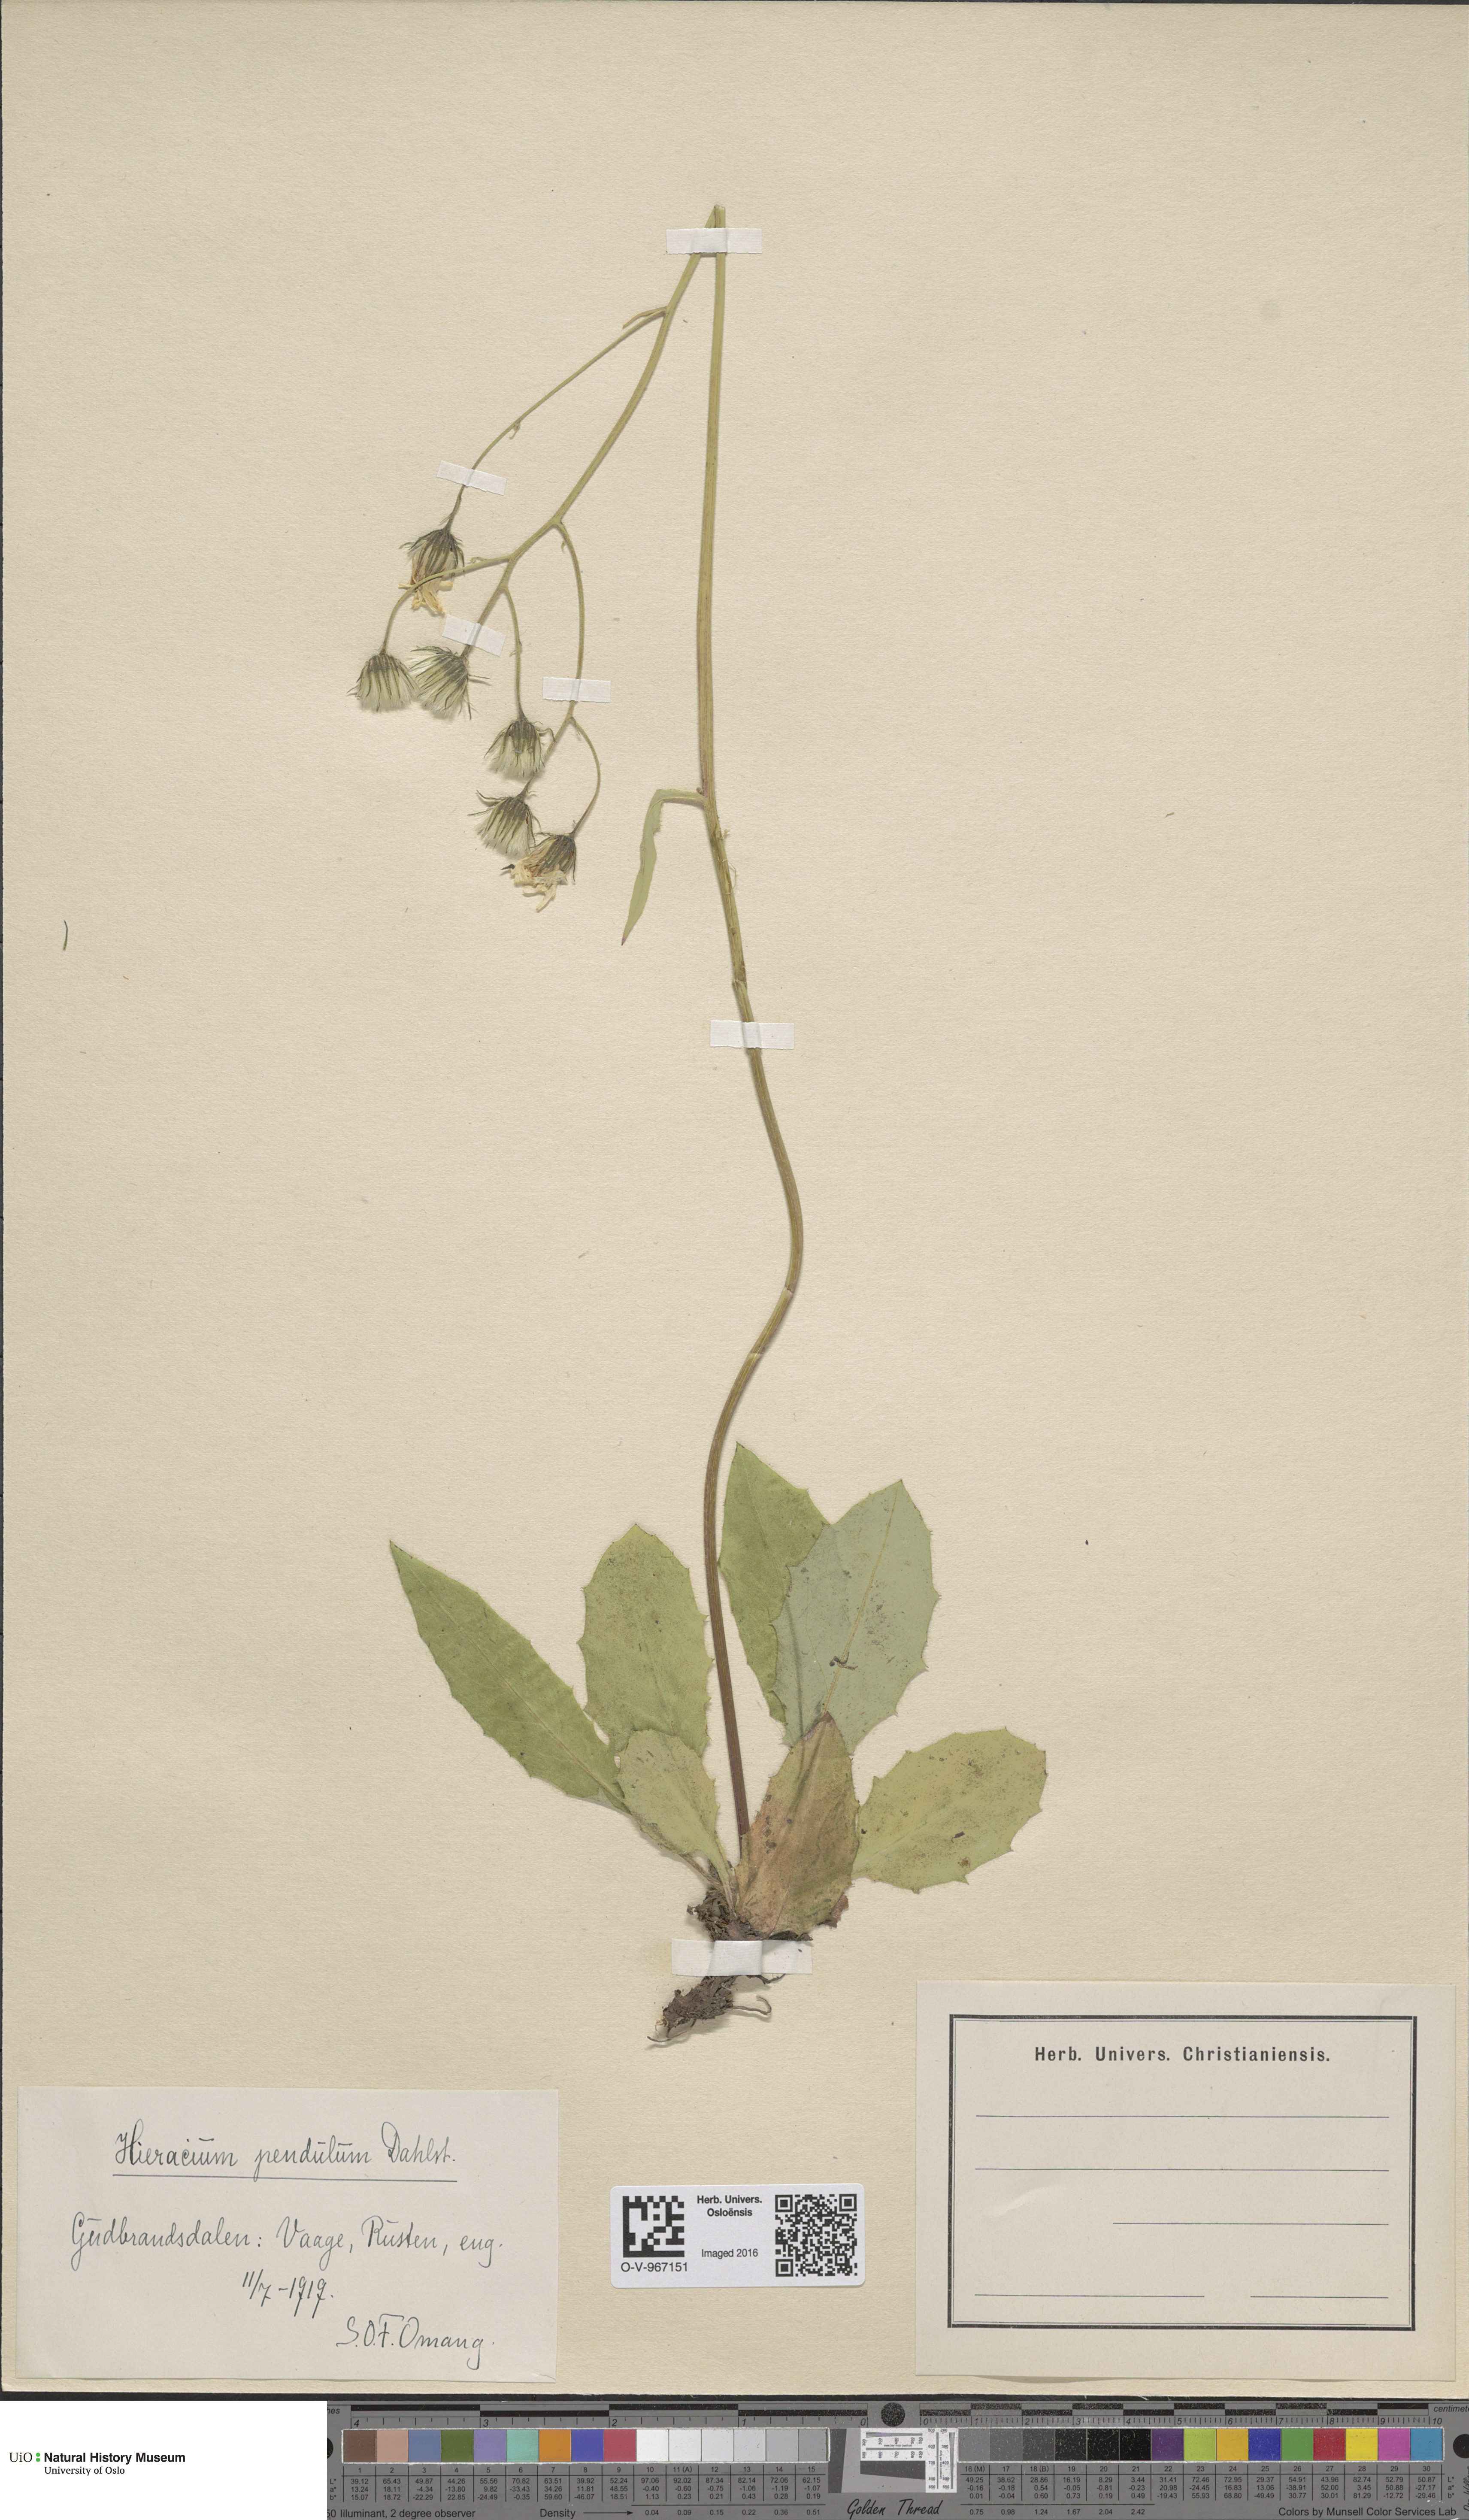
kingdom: Plantae
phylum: Tracheophyta
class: Magnoliopsida
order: Asterales
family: Asteraceae
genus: Hieracium
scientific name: Hieracium pendulum
